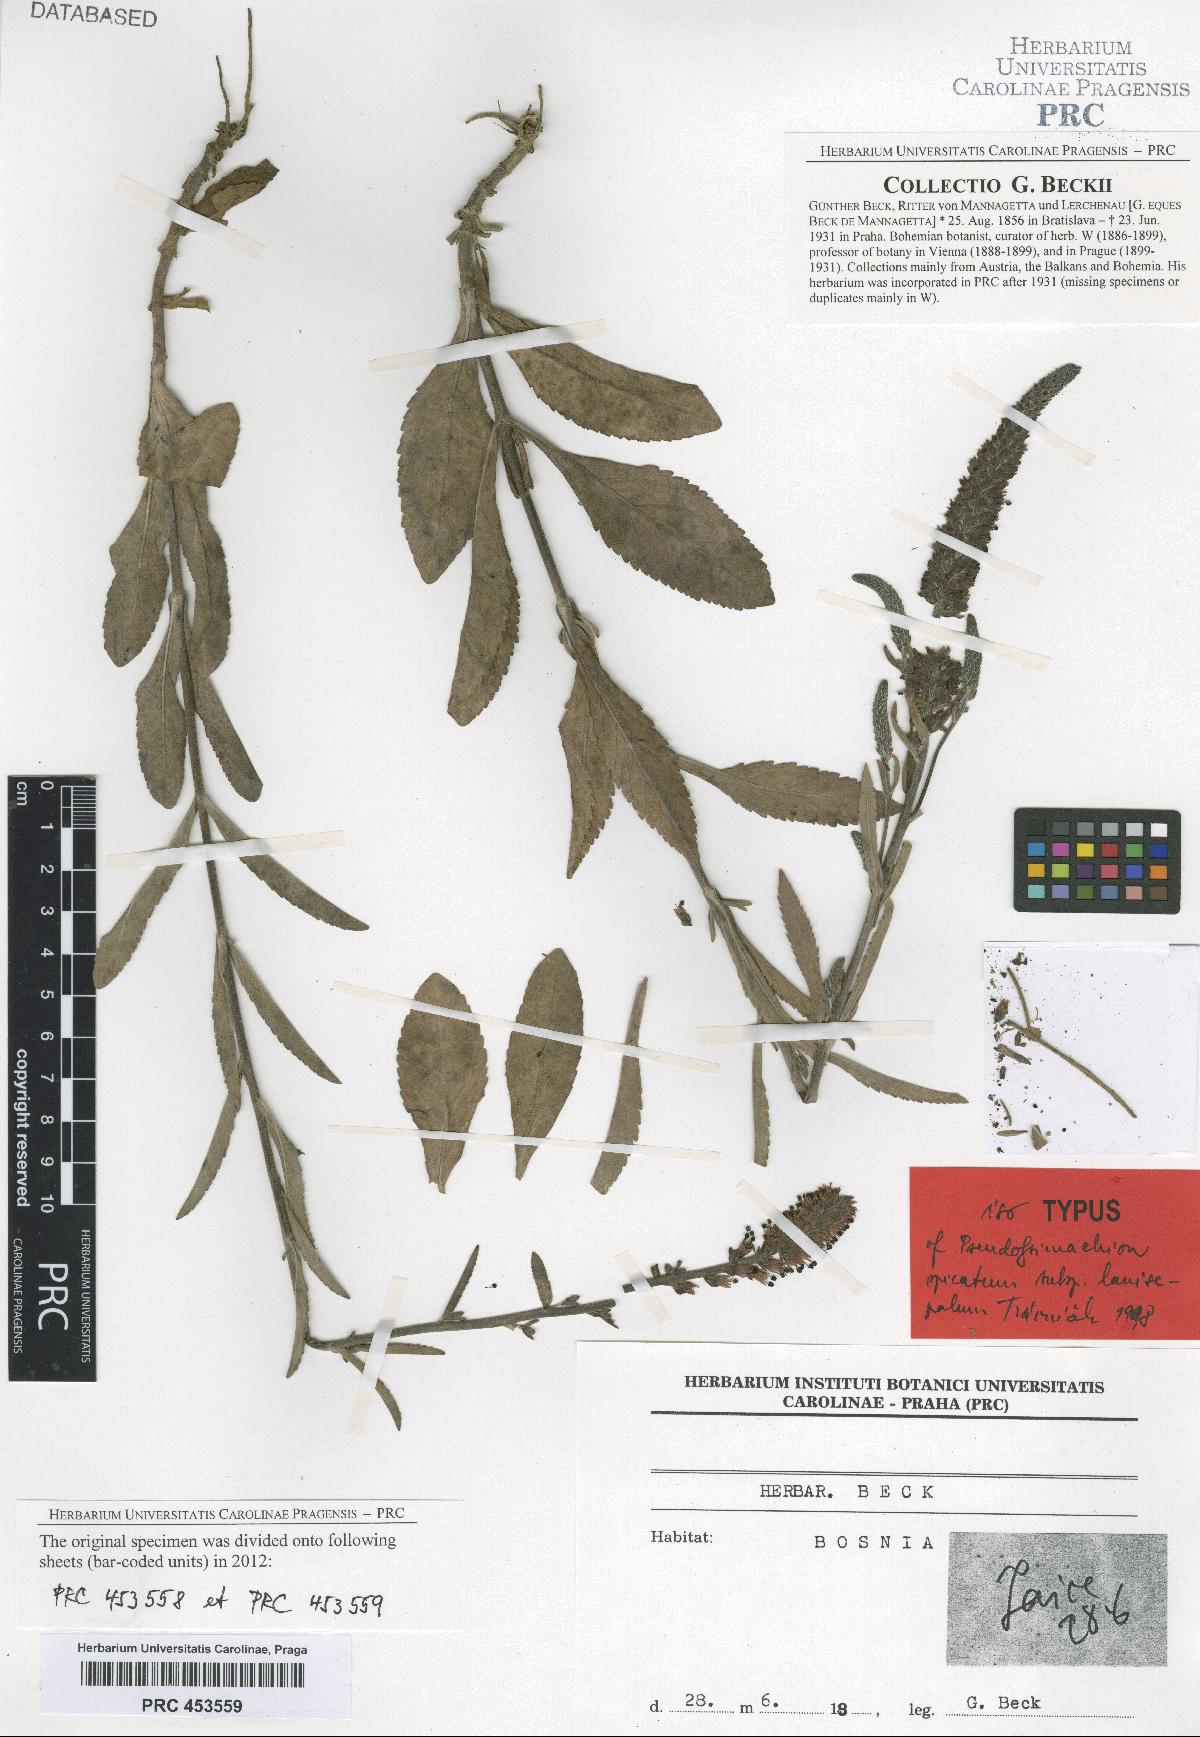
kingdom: Plantae
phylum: Tracheophyta
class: Magnoliopsida
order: Lamiales
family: Plantaginaceae
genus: Veronica
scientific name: Veronica spicata
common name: Spiked speedwell
